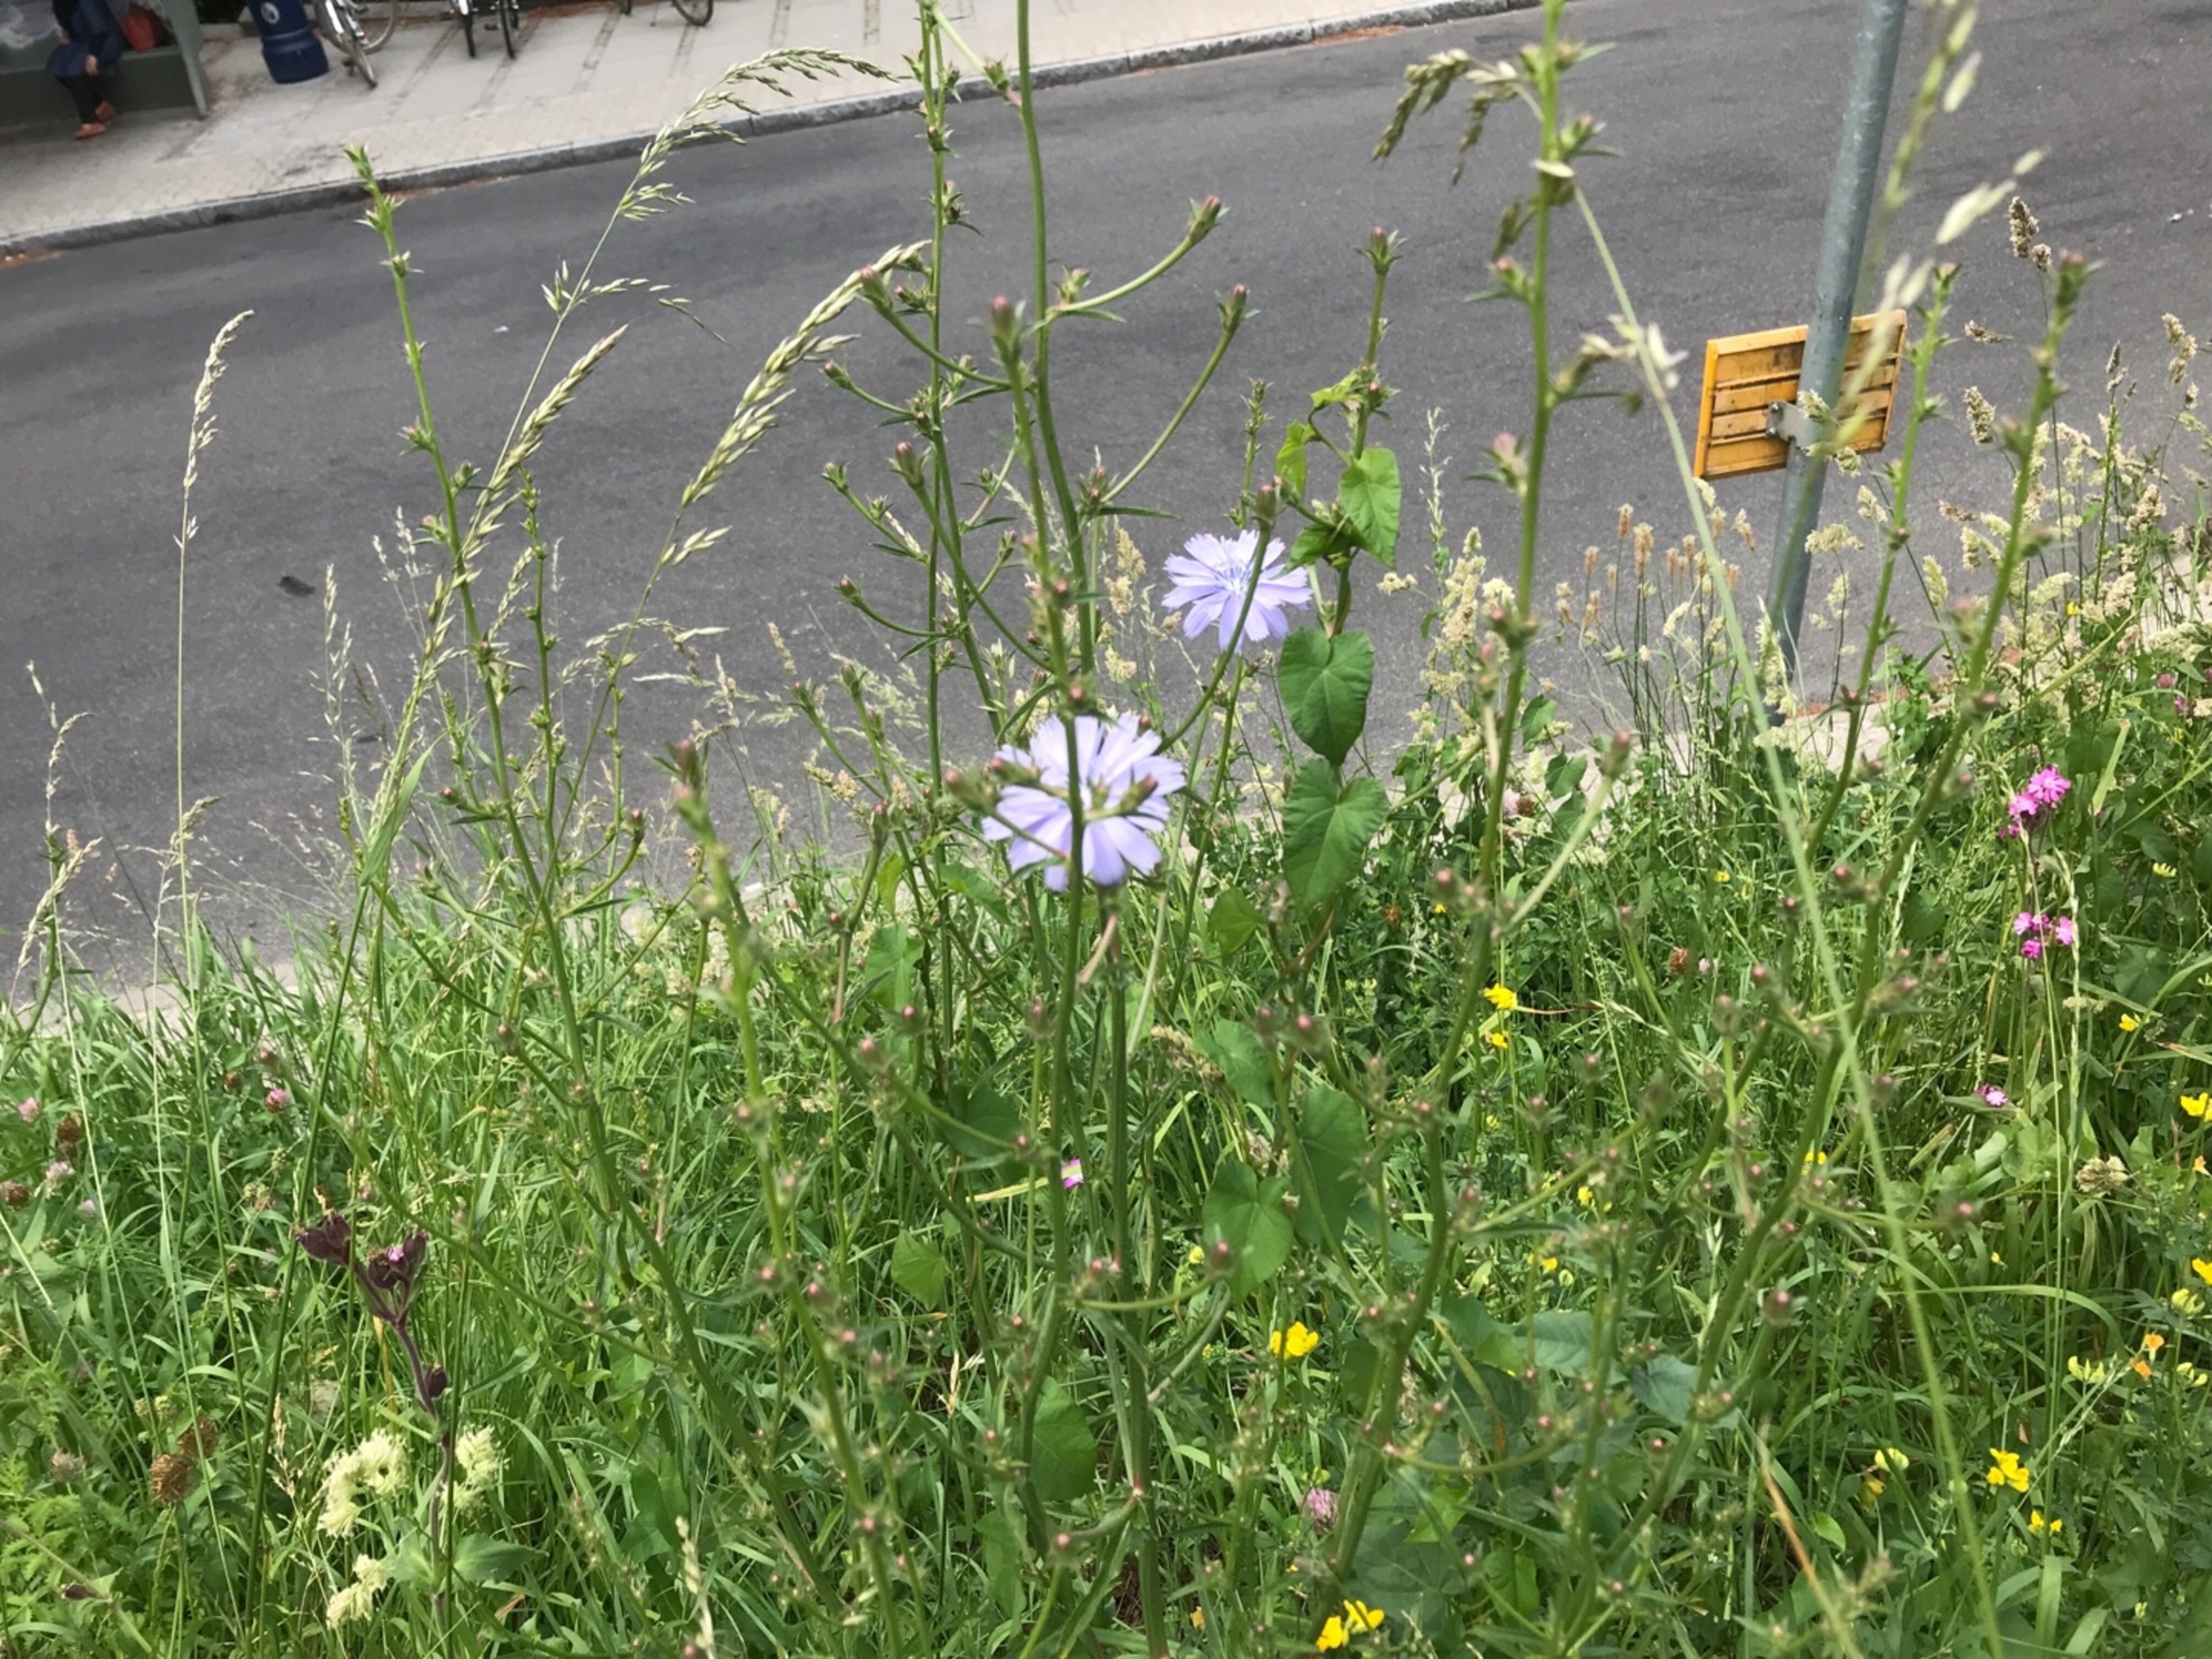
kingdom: Plantae
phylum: Tracheophyta
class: Magnoliopsida
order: Asterales
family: Asteraceae
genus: Cichorium
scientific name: Cichorium intybus
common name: Cikorie
